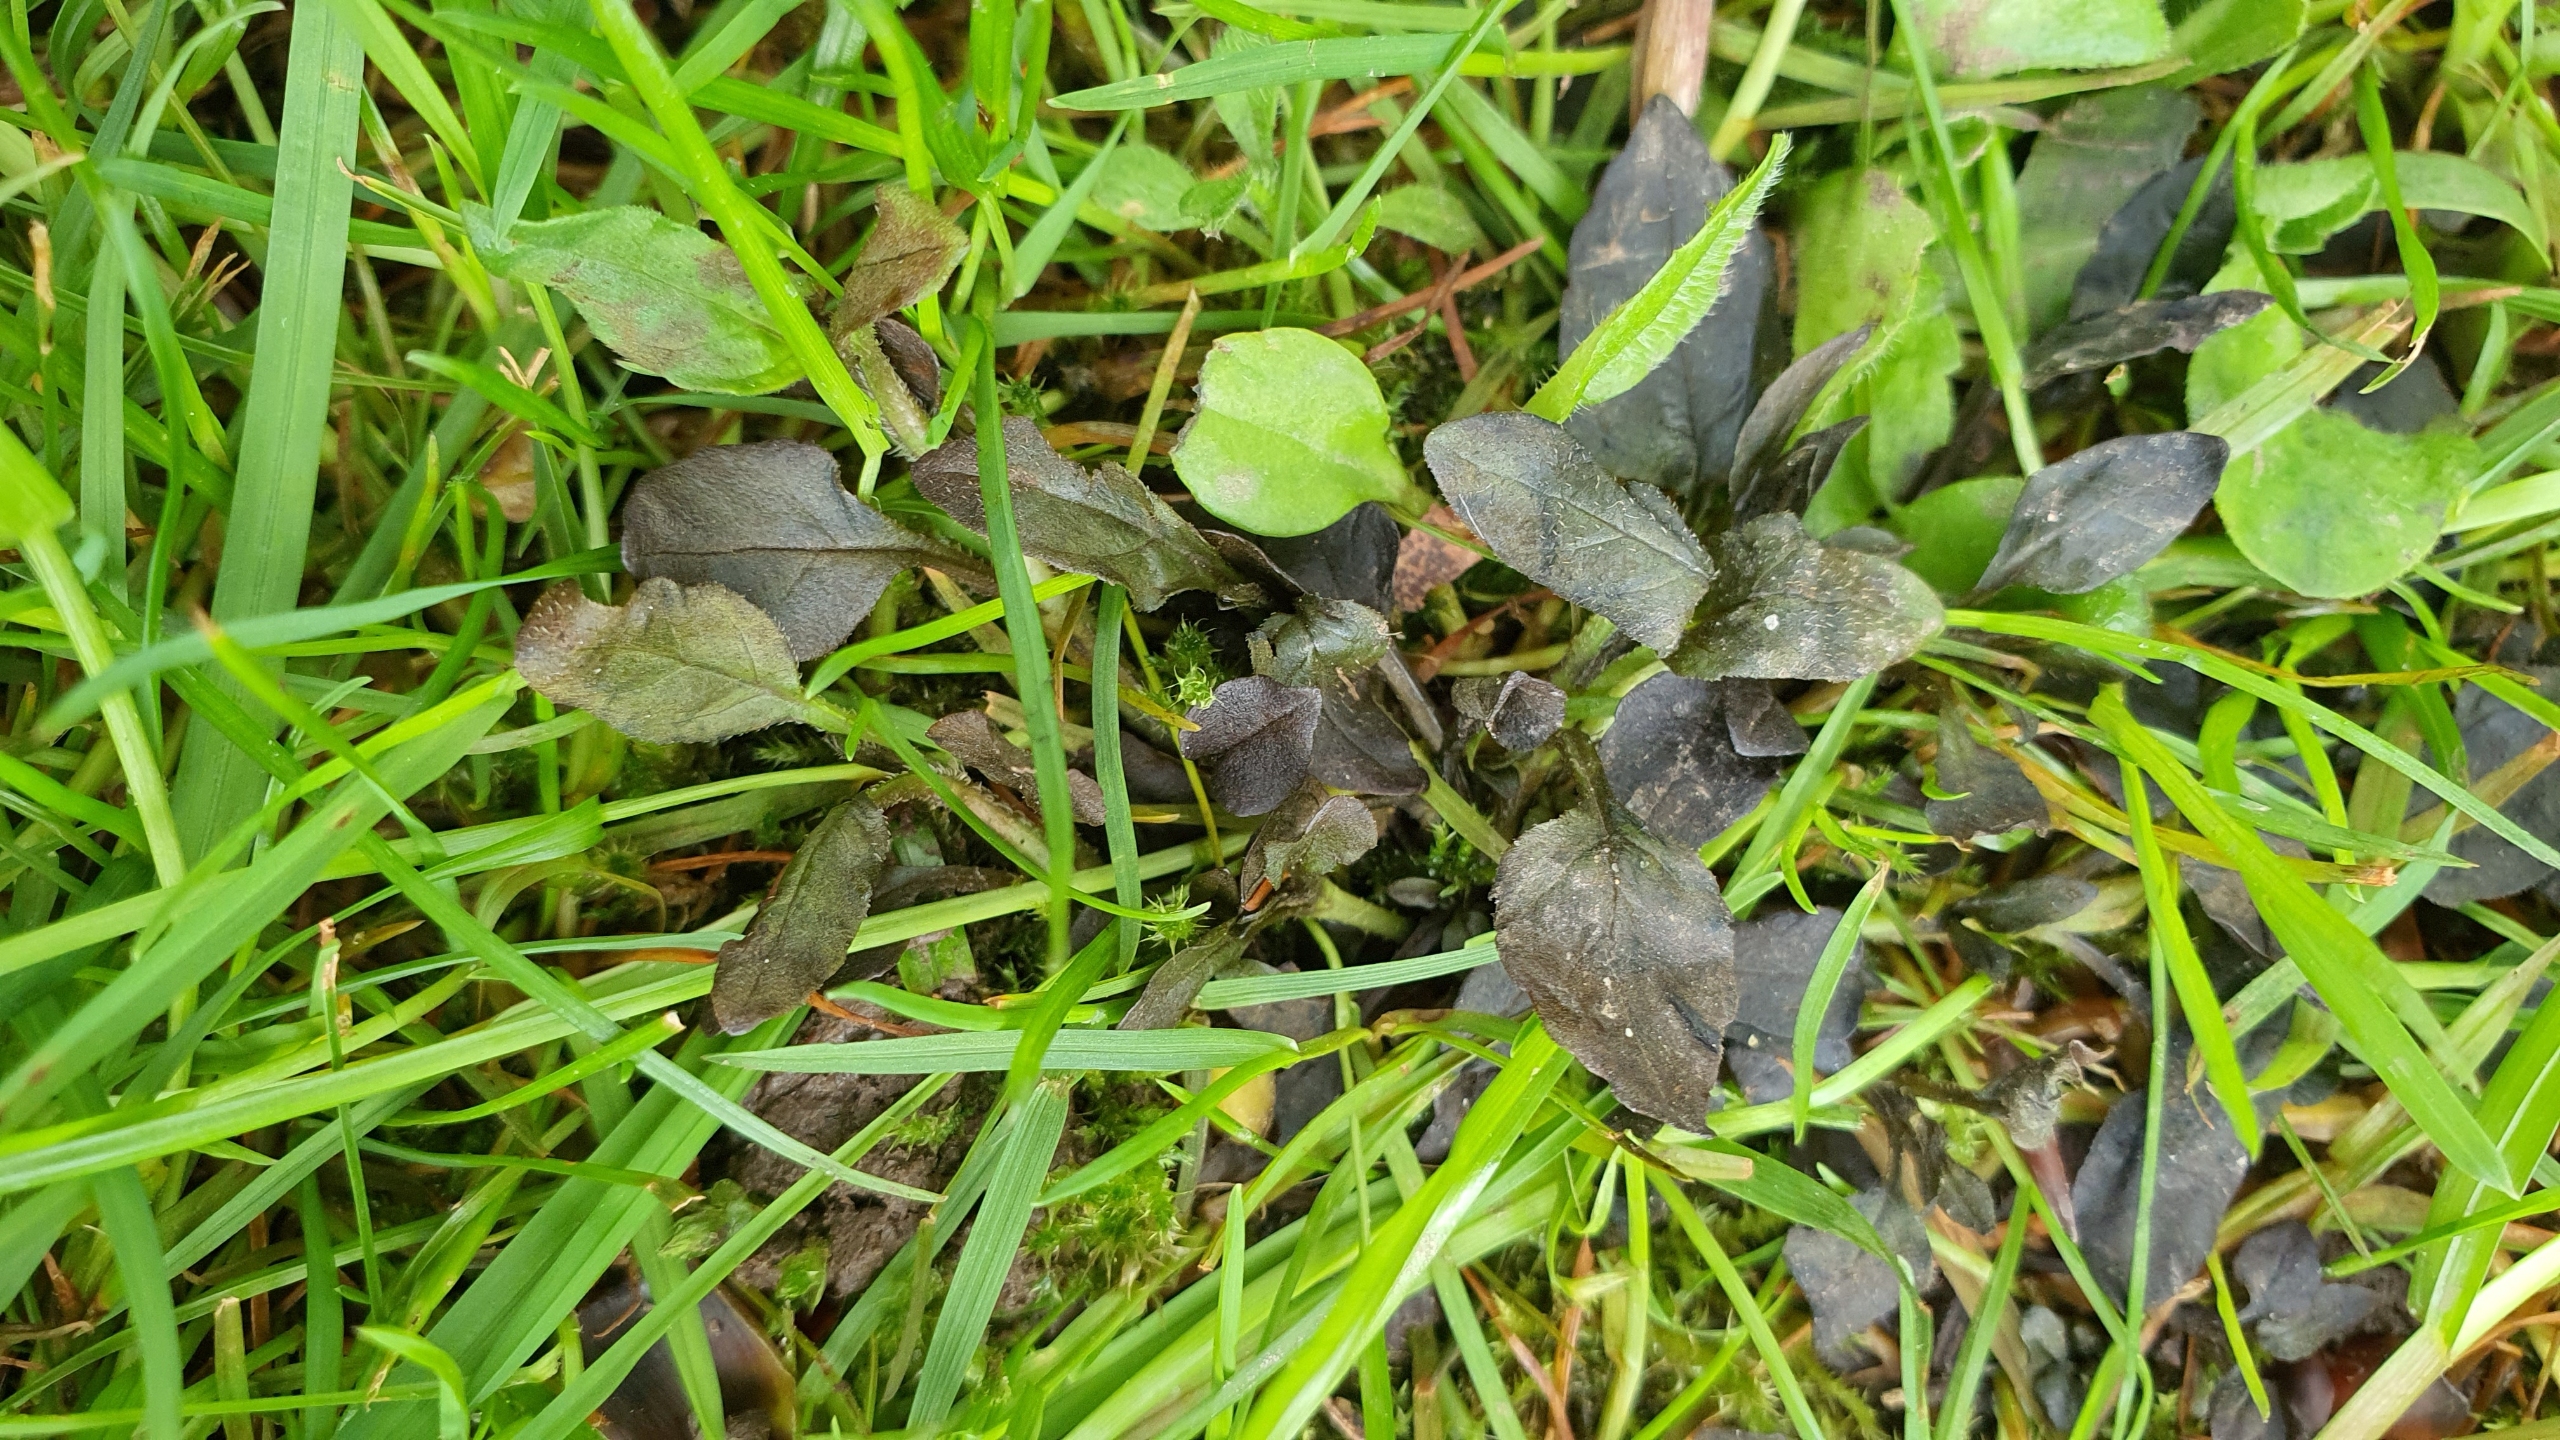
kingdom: Plantae
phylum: Tracheophyta
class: Magnoliopsida
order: Lamiales
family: Lamiaceae
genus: Ajuga
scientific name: Ajuga reptans
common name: Krybende læbeløs
